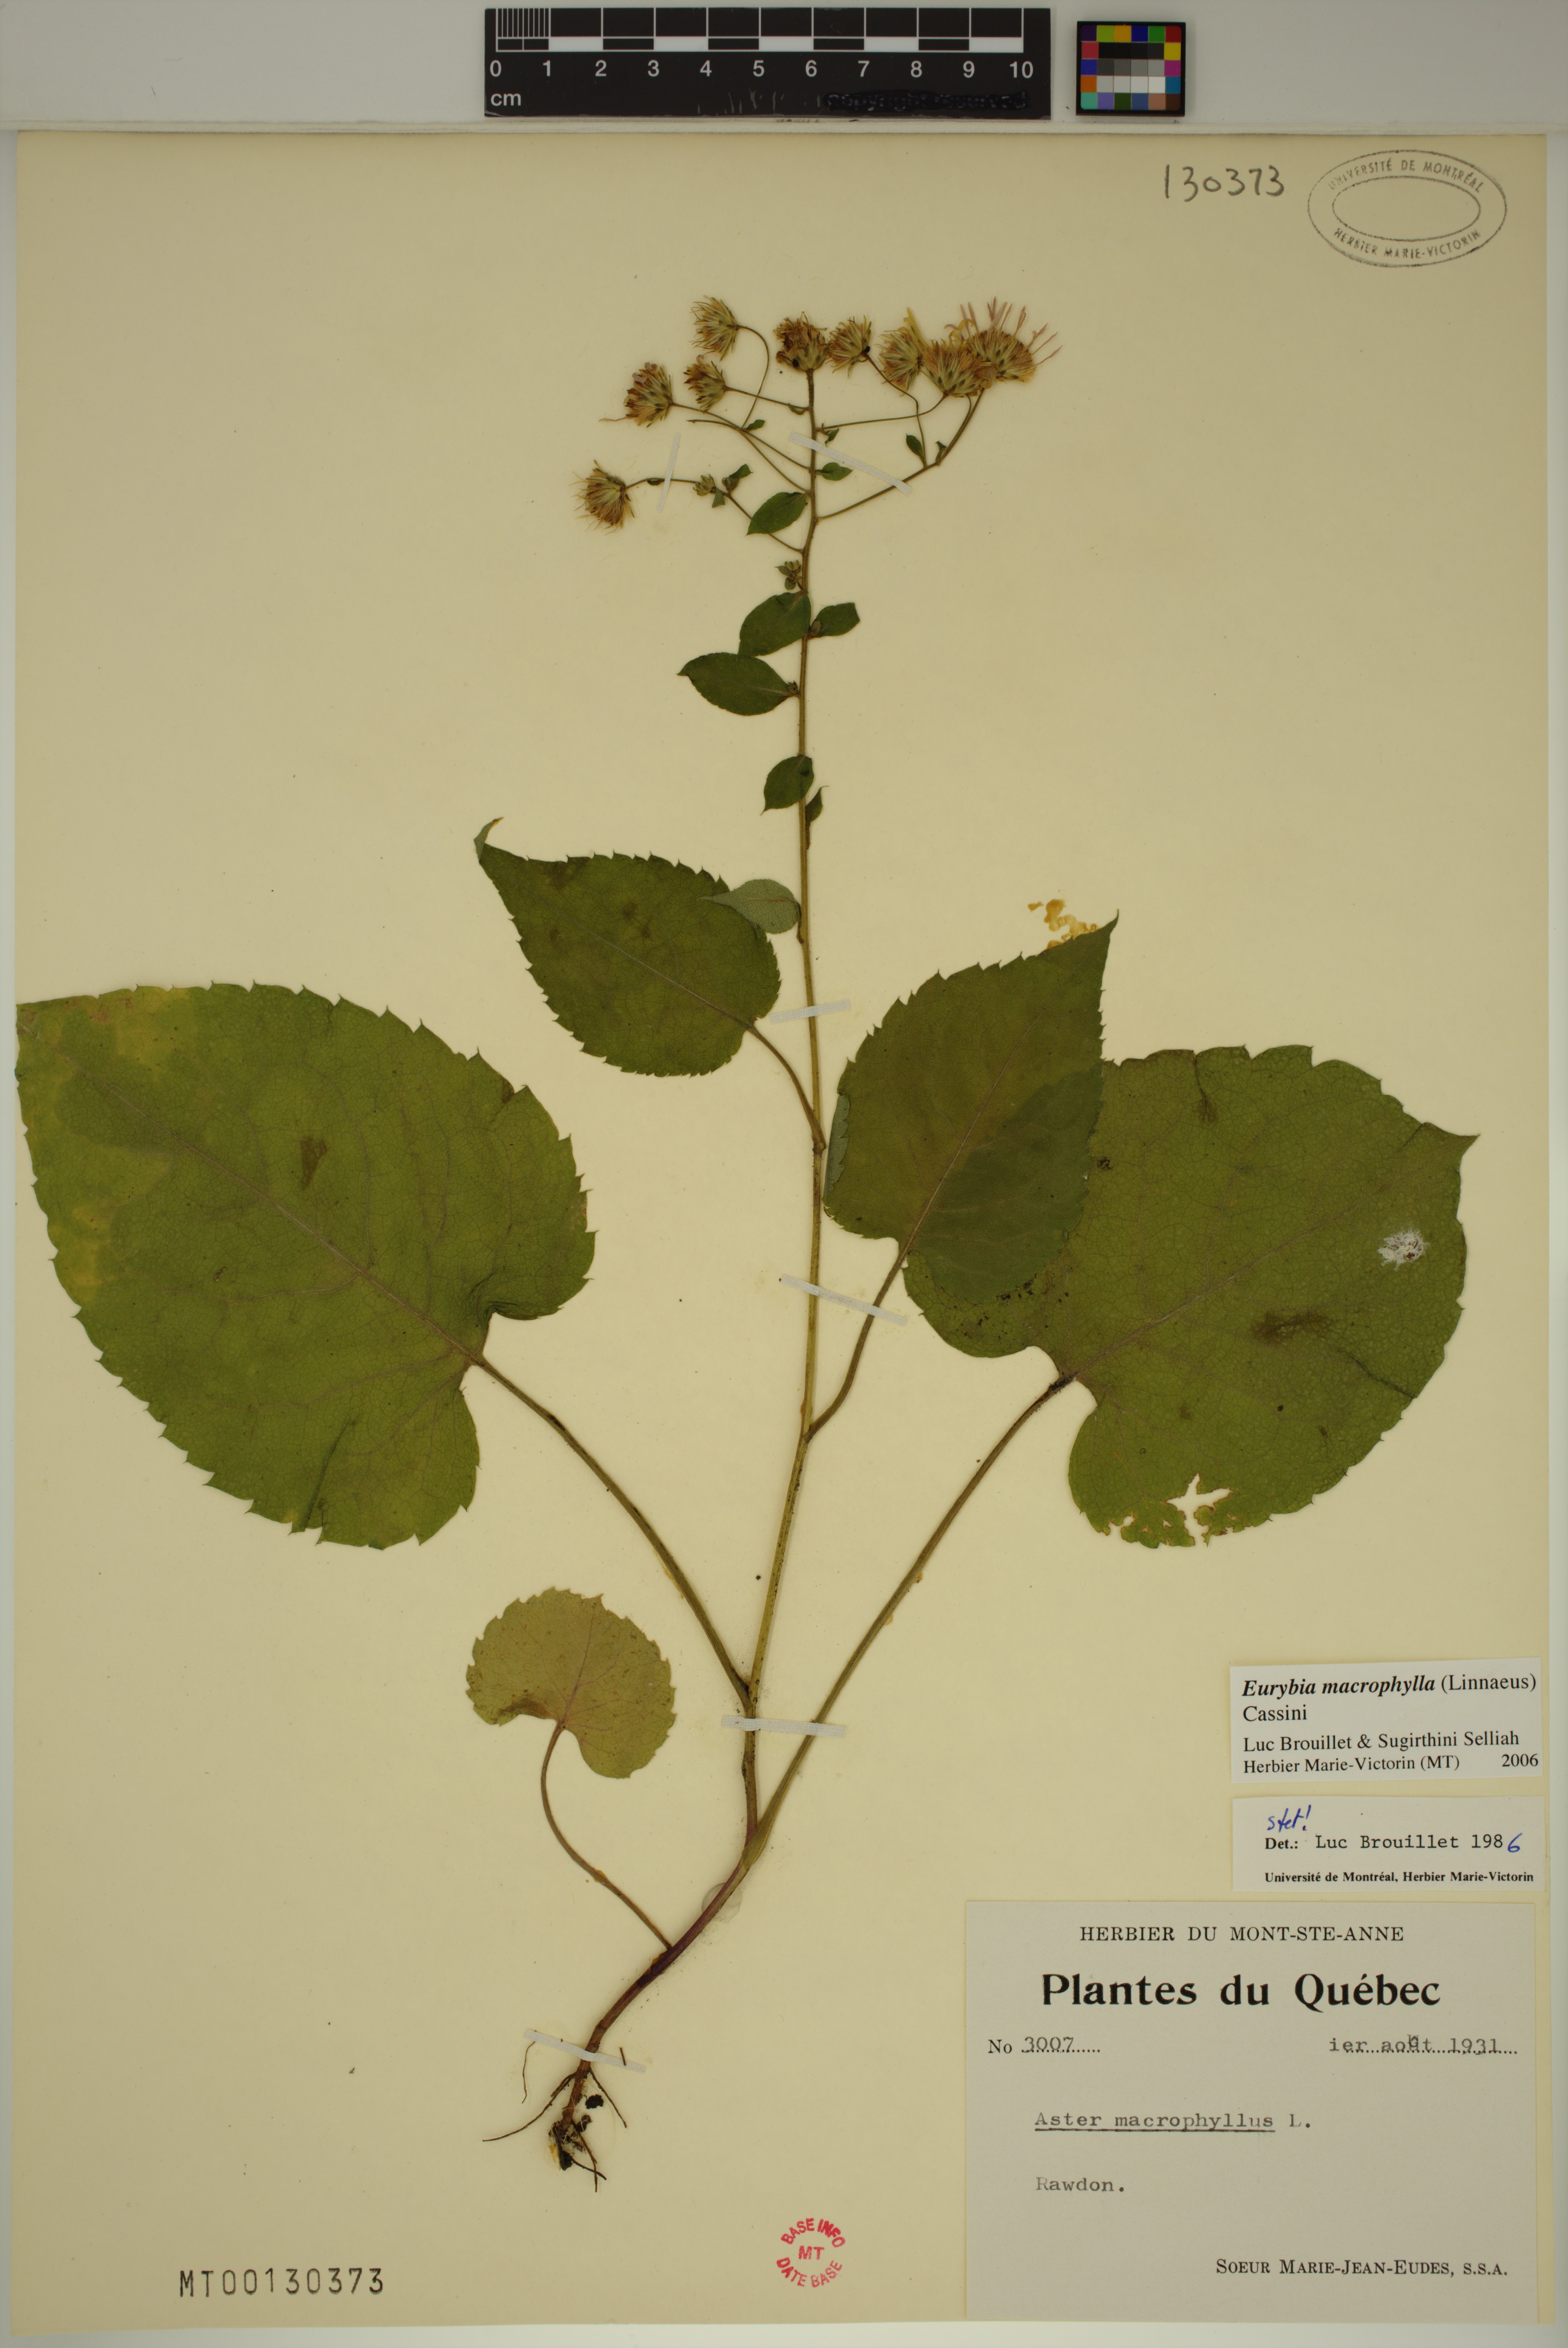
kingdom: Plantae
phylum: Tracheophyta
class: Magnoliopsida
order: Asterales
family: Asteraceae
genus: Eurybia
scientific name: Eurybia macrophylla
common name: Big-leaved aster
